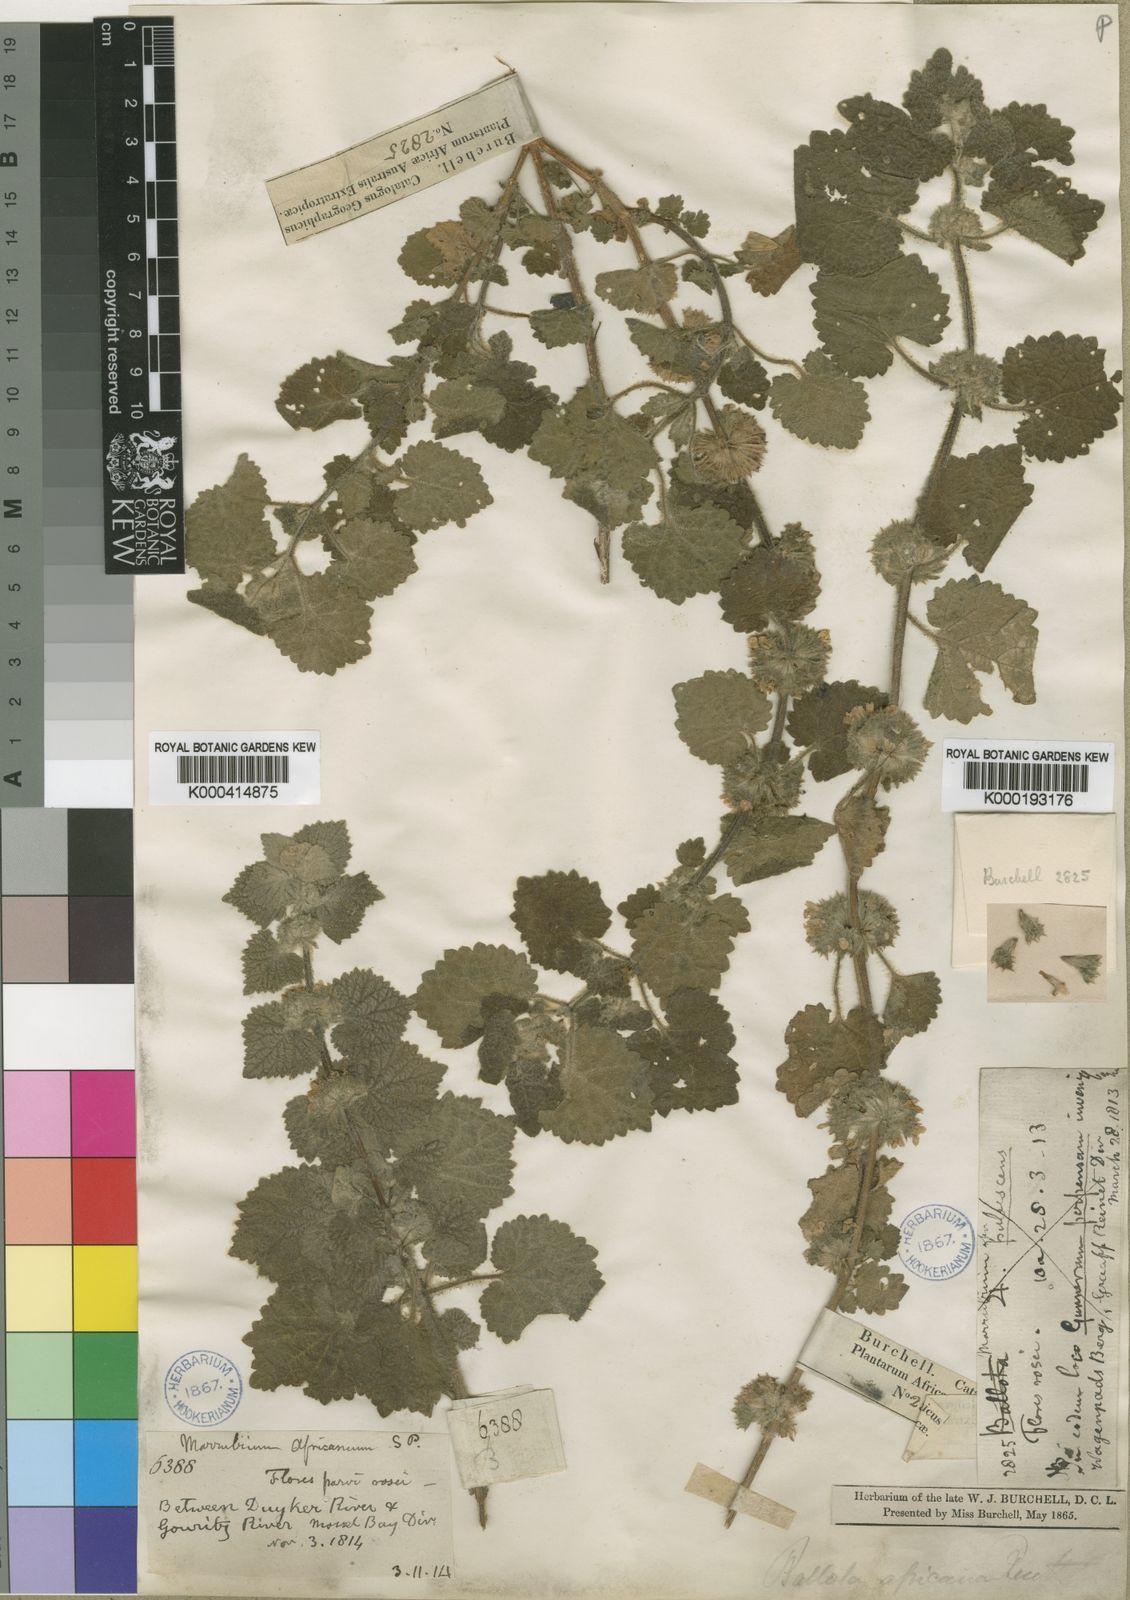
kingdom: Plantae
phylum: Tracheophyta
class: Magnoliopsida
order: Lamiales
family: Lamiaceae
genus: Pseudodictamnus
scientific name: Pseudodictamnus africanus
